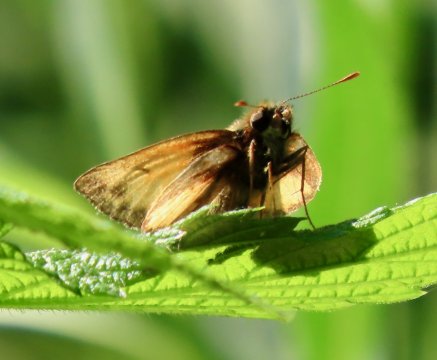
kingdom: Animalia
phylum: Arthropoda
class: Insecta
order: Lepidoptera
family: Hesperiidae
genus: Lon
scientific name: Lon zabulon
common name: Zabulon Skipper
